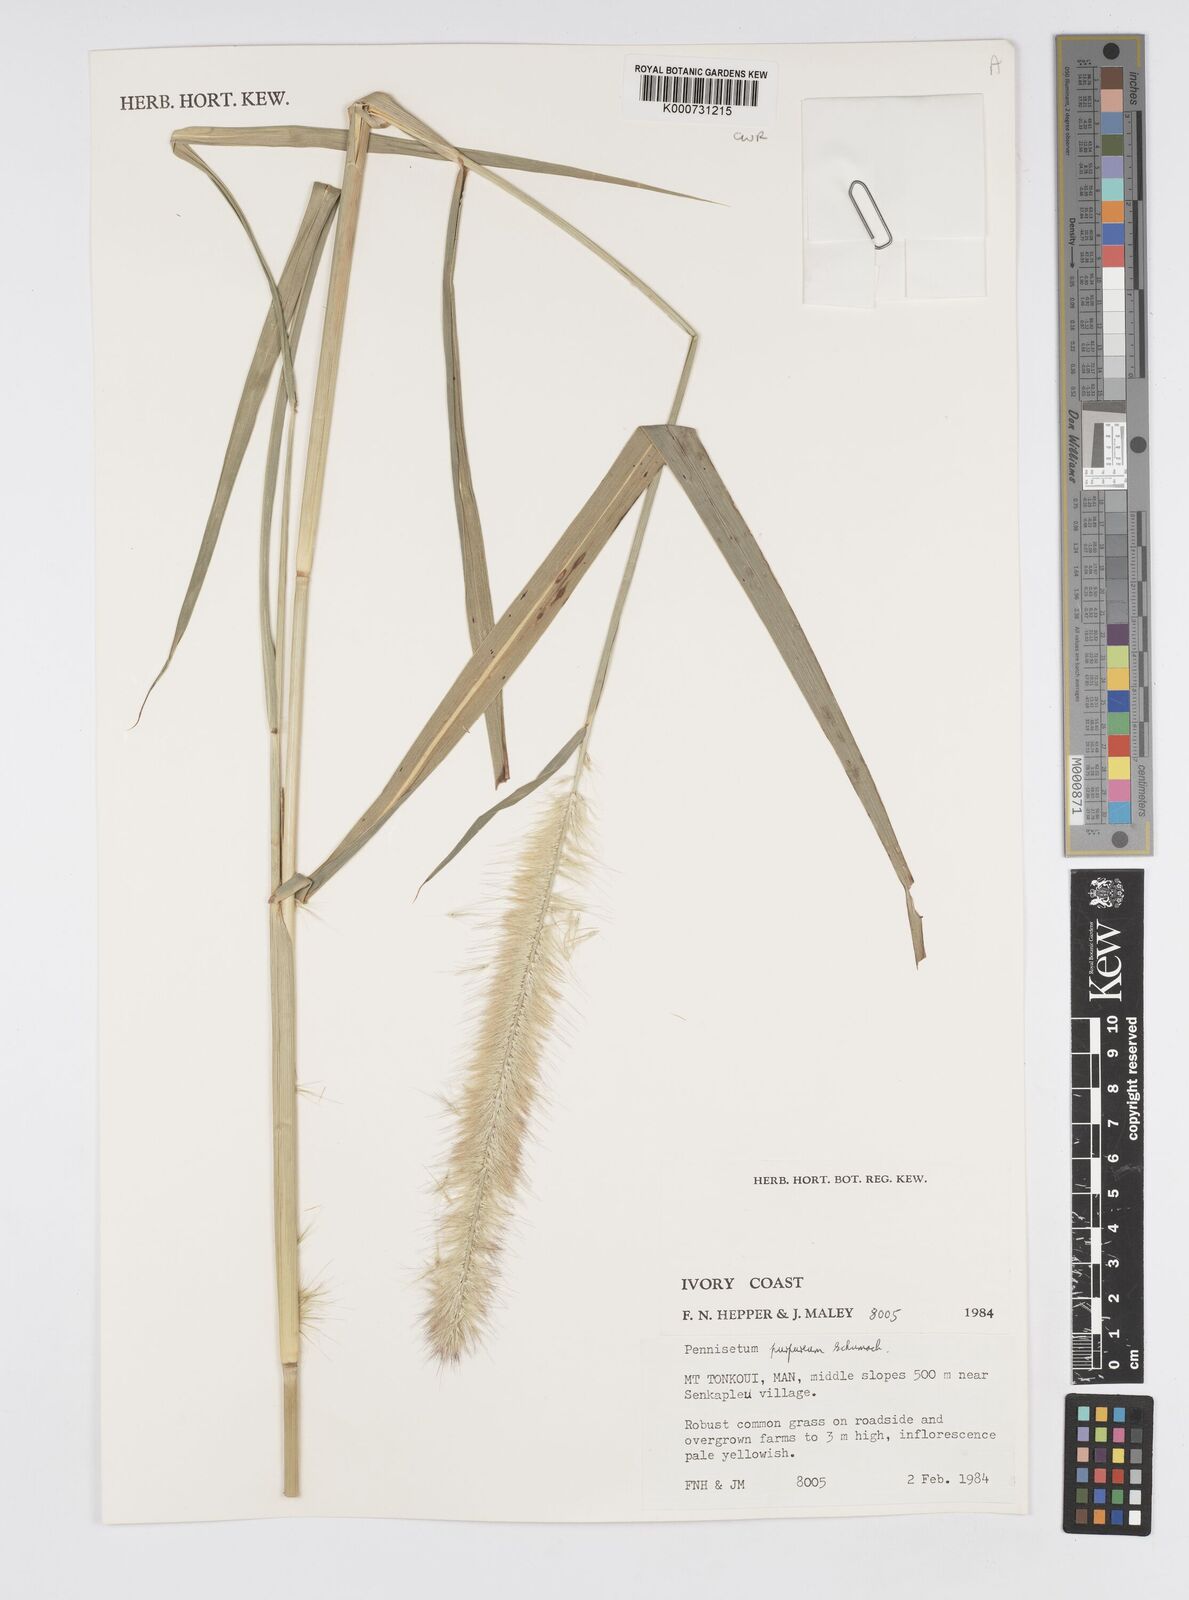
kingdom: Plantae
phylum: Tracheophyta
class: Liliopsida
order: Poales
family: Poaceae
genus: Cenchrus
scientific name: Cenchrus purpureus
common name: Elephant grass
